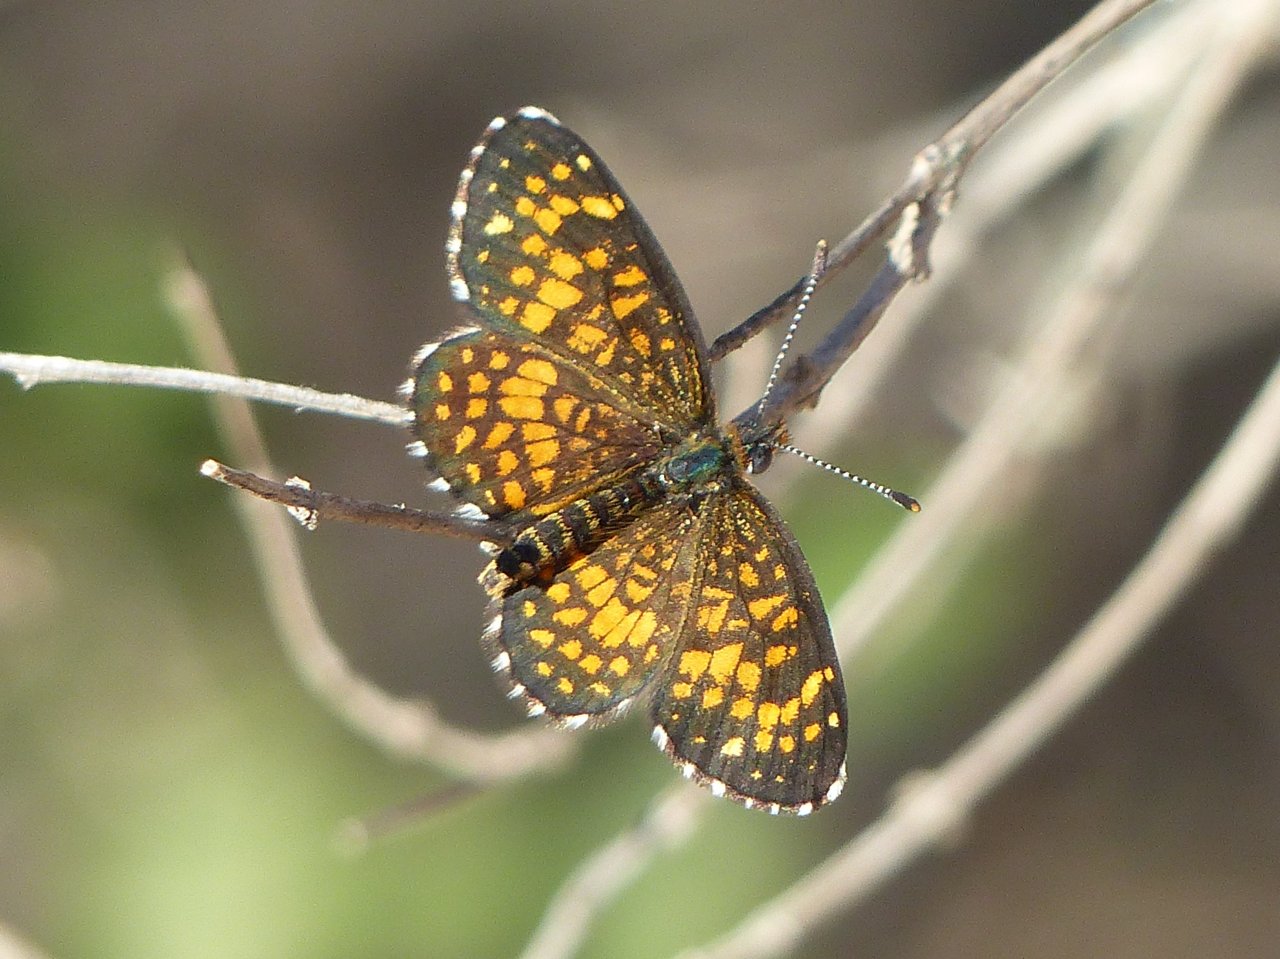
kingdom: Animalia
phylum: Arthropoda
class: Insecta
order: Lepidoptera
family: Nymphalidae
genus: Texola
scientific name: Texola elada
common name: Elada Checkerspot
